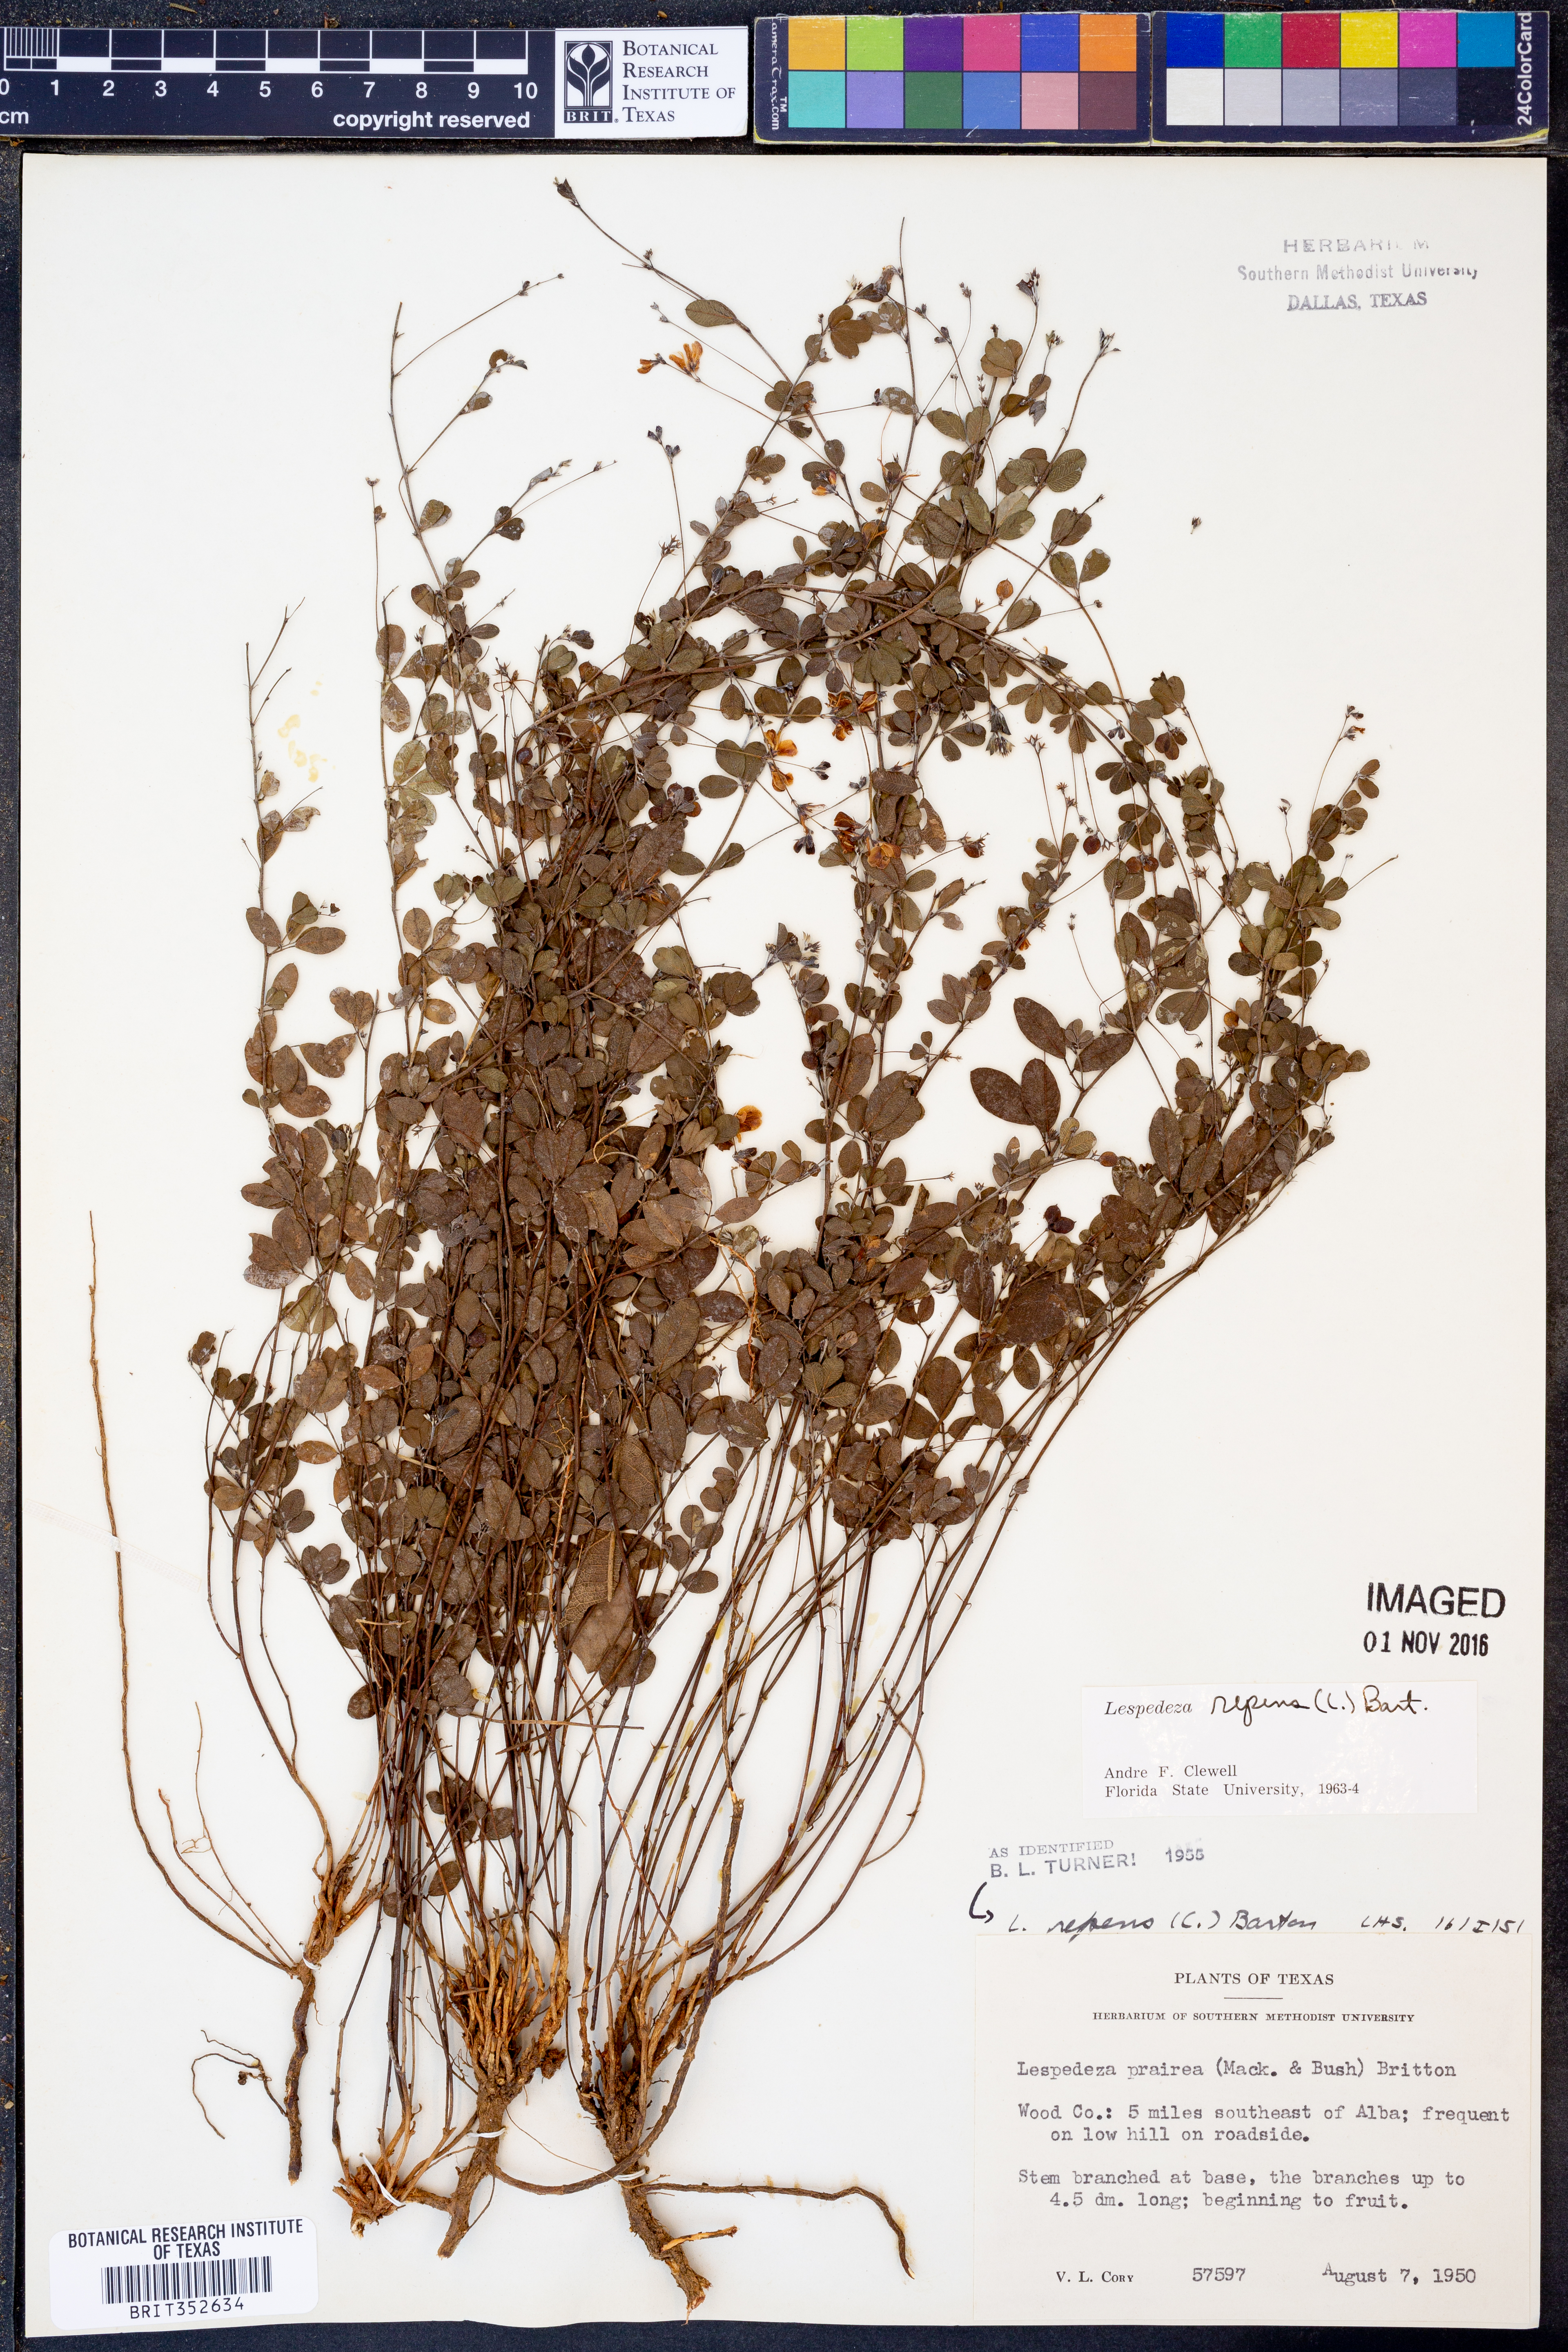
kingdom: Plantae
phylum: Tracheophyta
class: Magnoliopsida
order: Fabales
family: Fabaceae
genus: Lespedeza
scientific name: Lespedeza repens
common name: Creeping bush-clover
